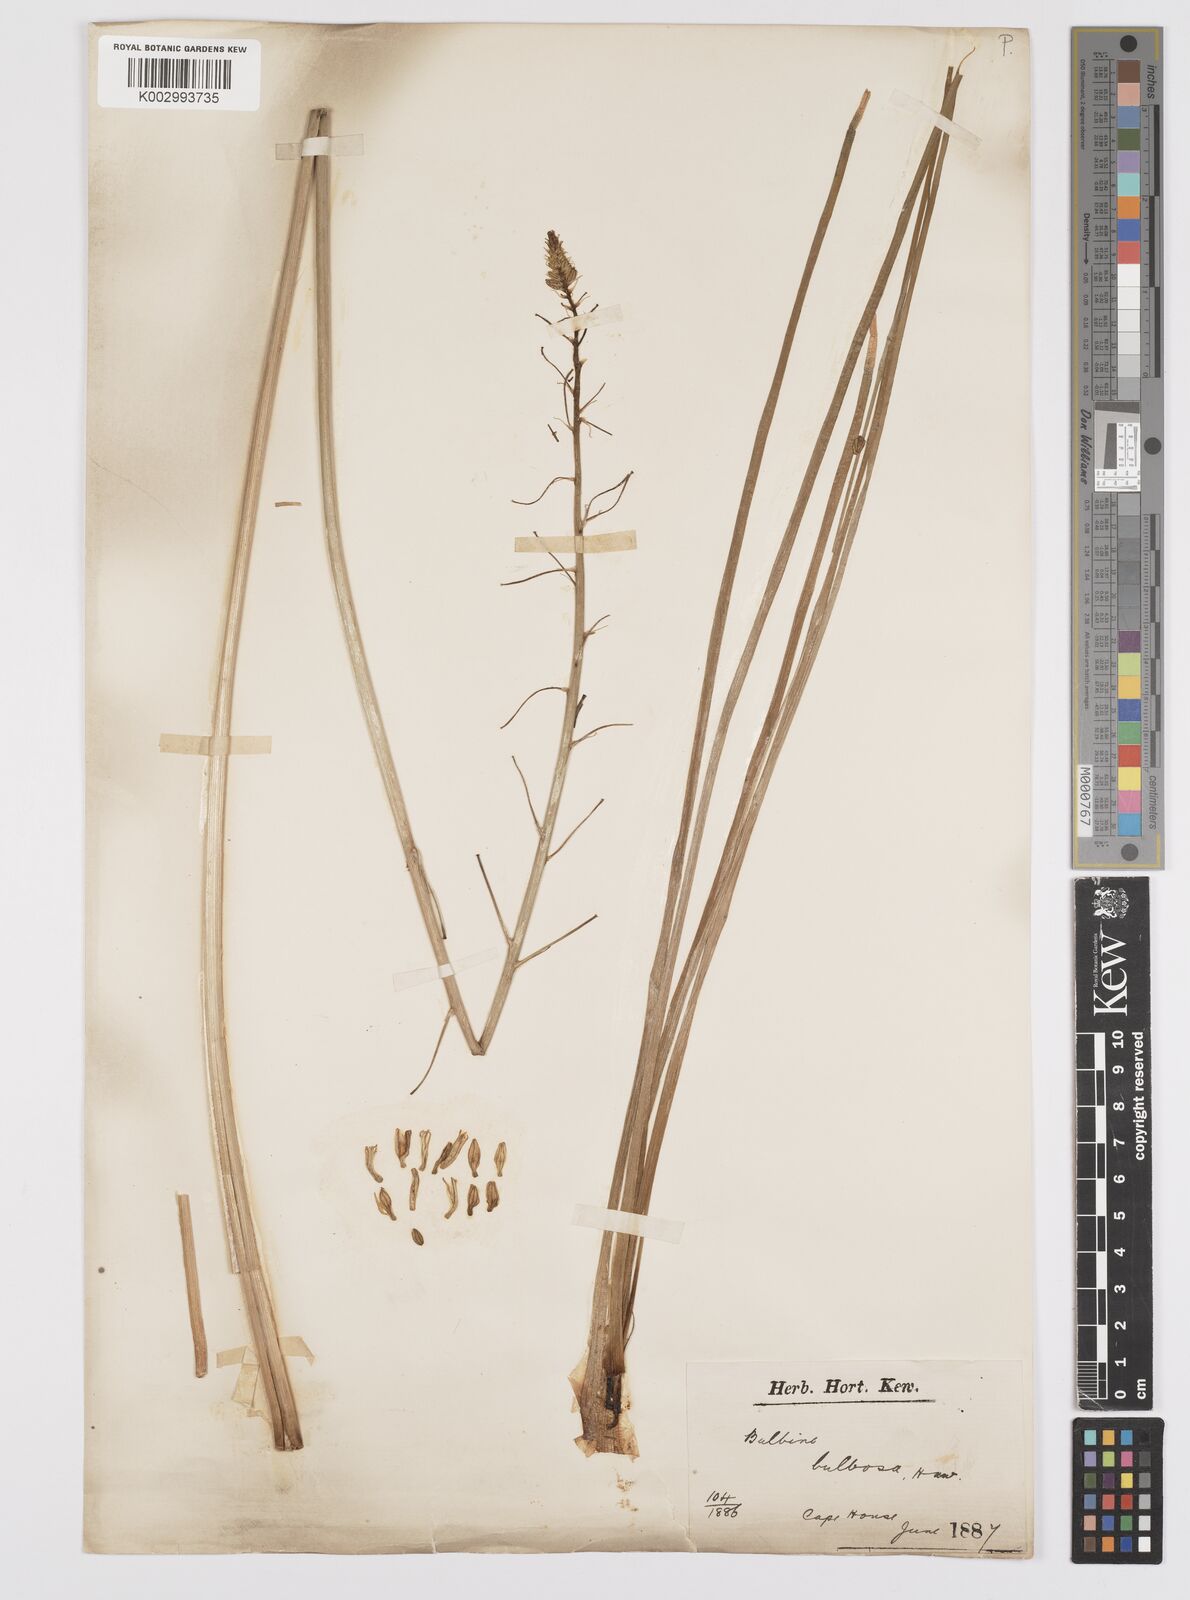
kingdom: Plantae
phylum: Tracheophyta
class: Liliopsida
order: Asparagales
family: Asphodelaceae
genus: Bulbine
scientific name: Bulbine bulbosa
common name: Golden-lily
